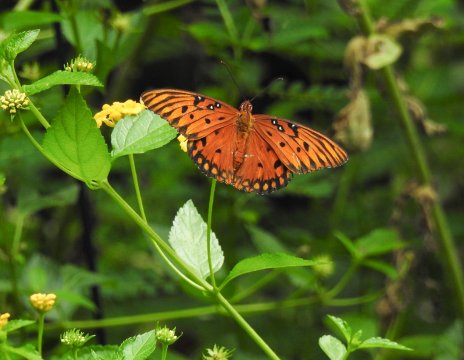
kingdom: Animalia
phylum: Arthropoda
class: Insecta
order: Lepidoptera
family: Nymphalidae
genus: Dione
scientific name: Dione vanillae
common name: Gulf Fritillary
